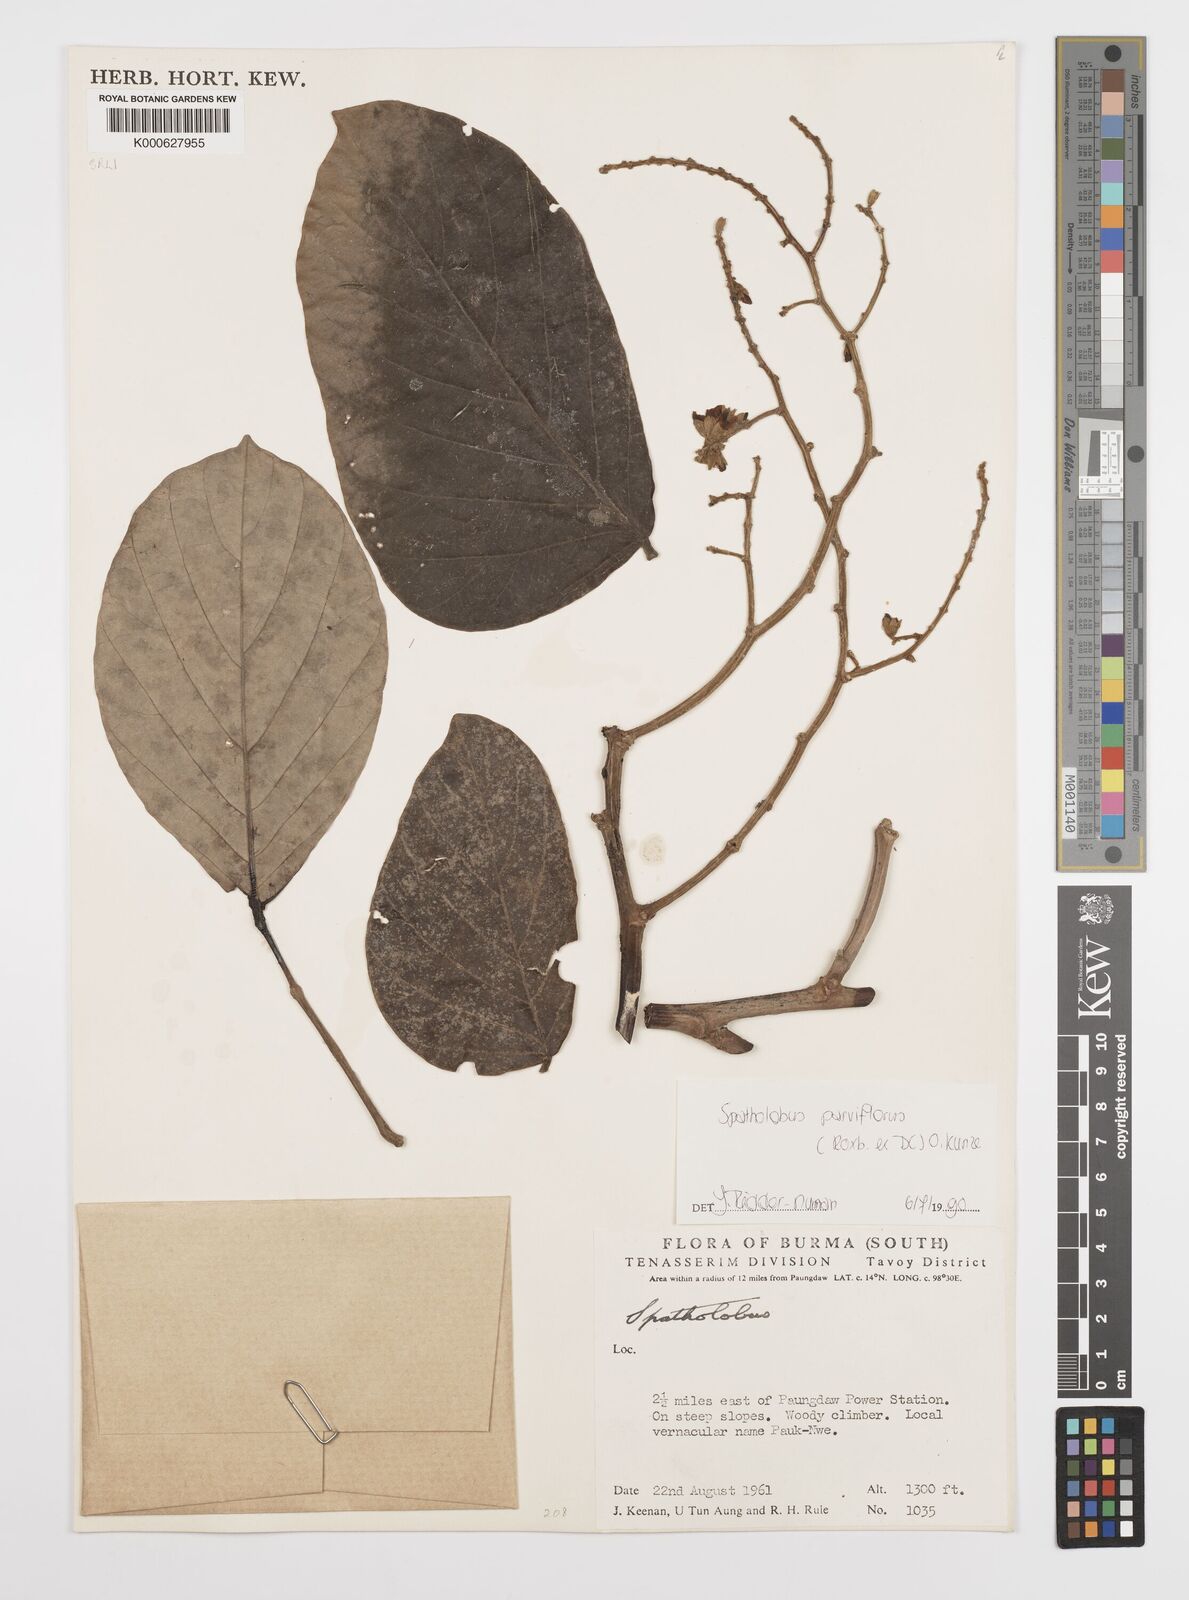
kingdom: Plantae
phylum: Tracheophyta
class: Magnoliopsida
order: Fabales
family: Fabaceae
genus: Spatholobus
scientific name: Spatholobus parviflorus
